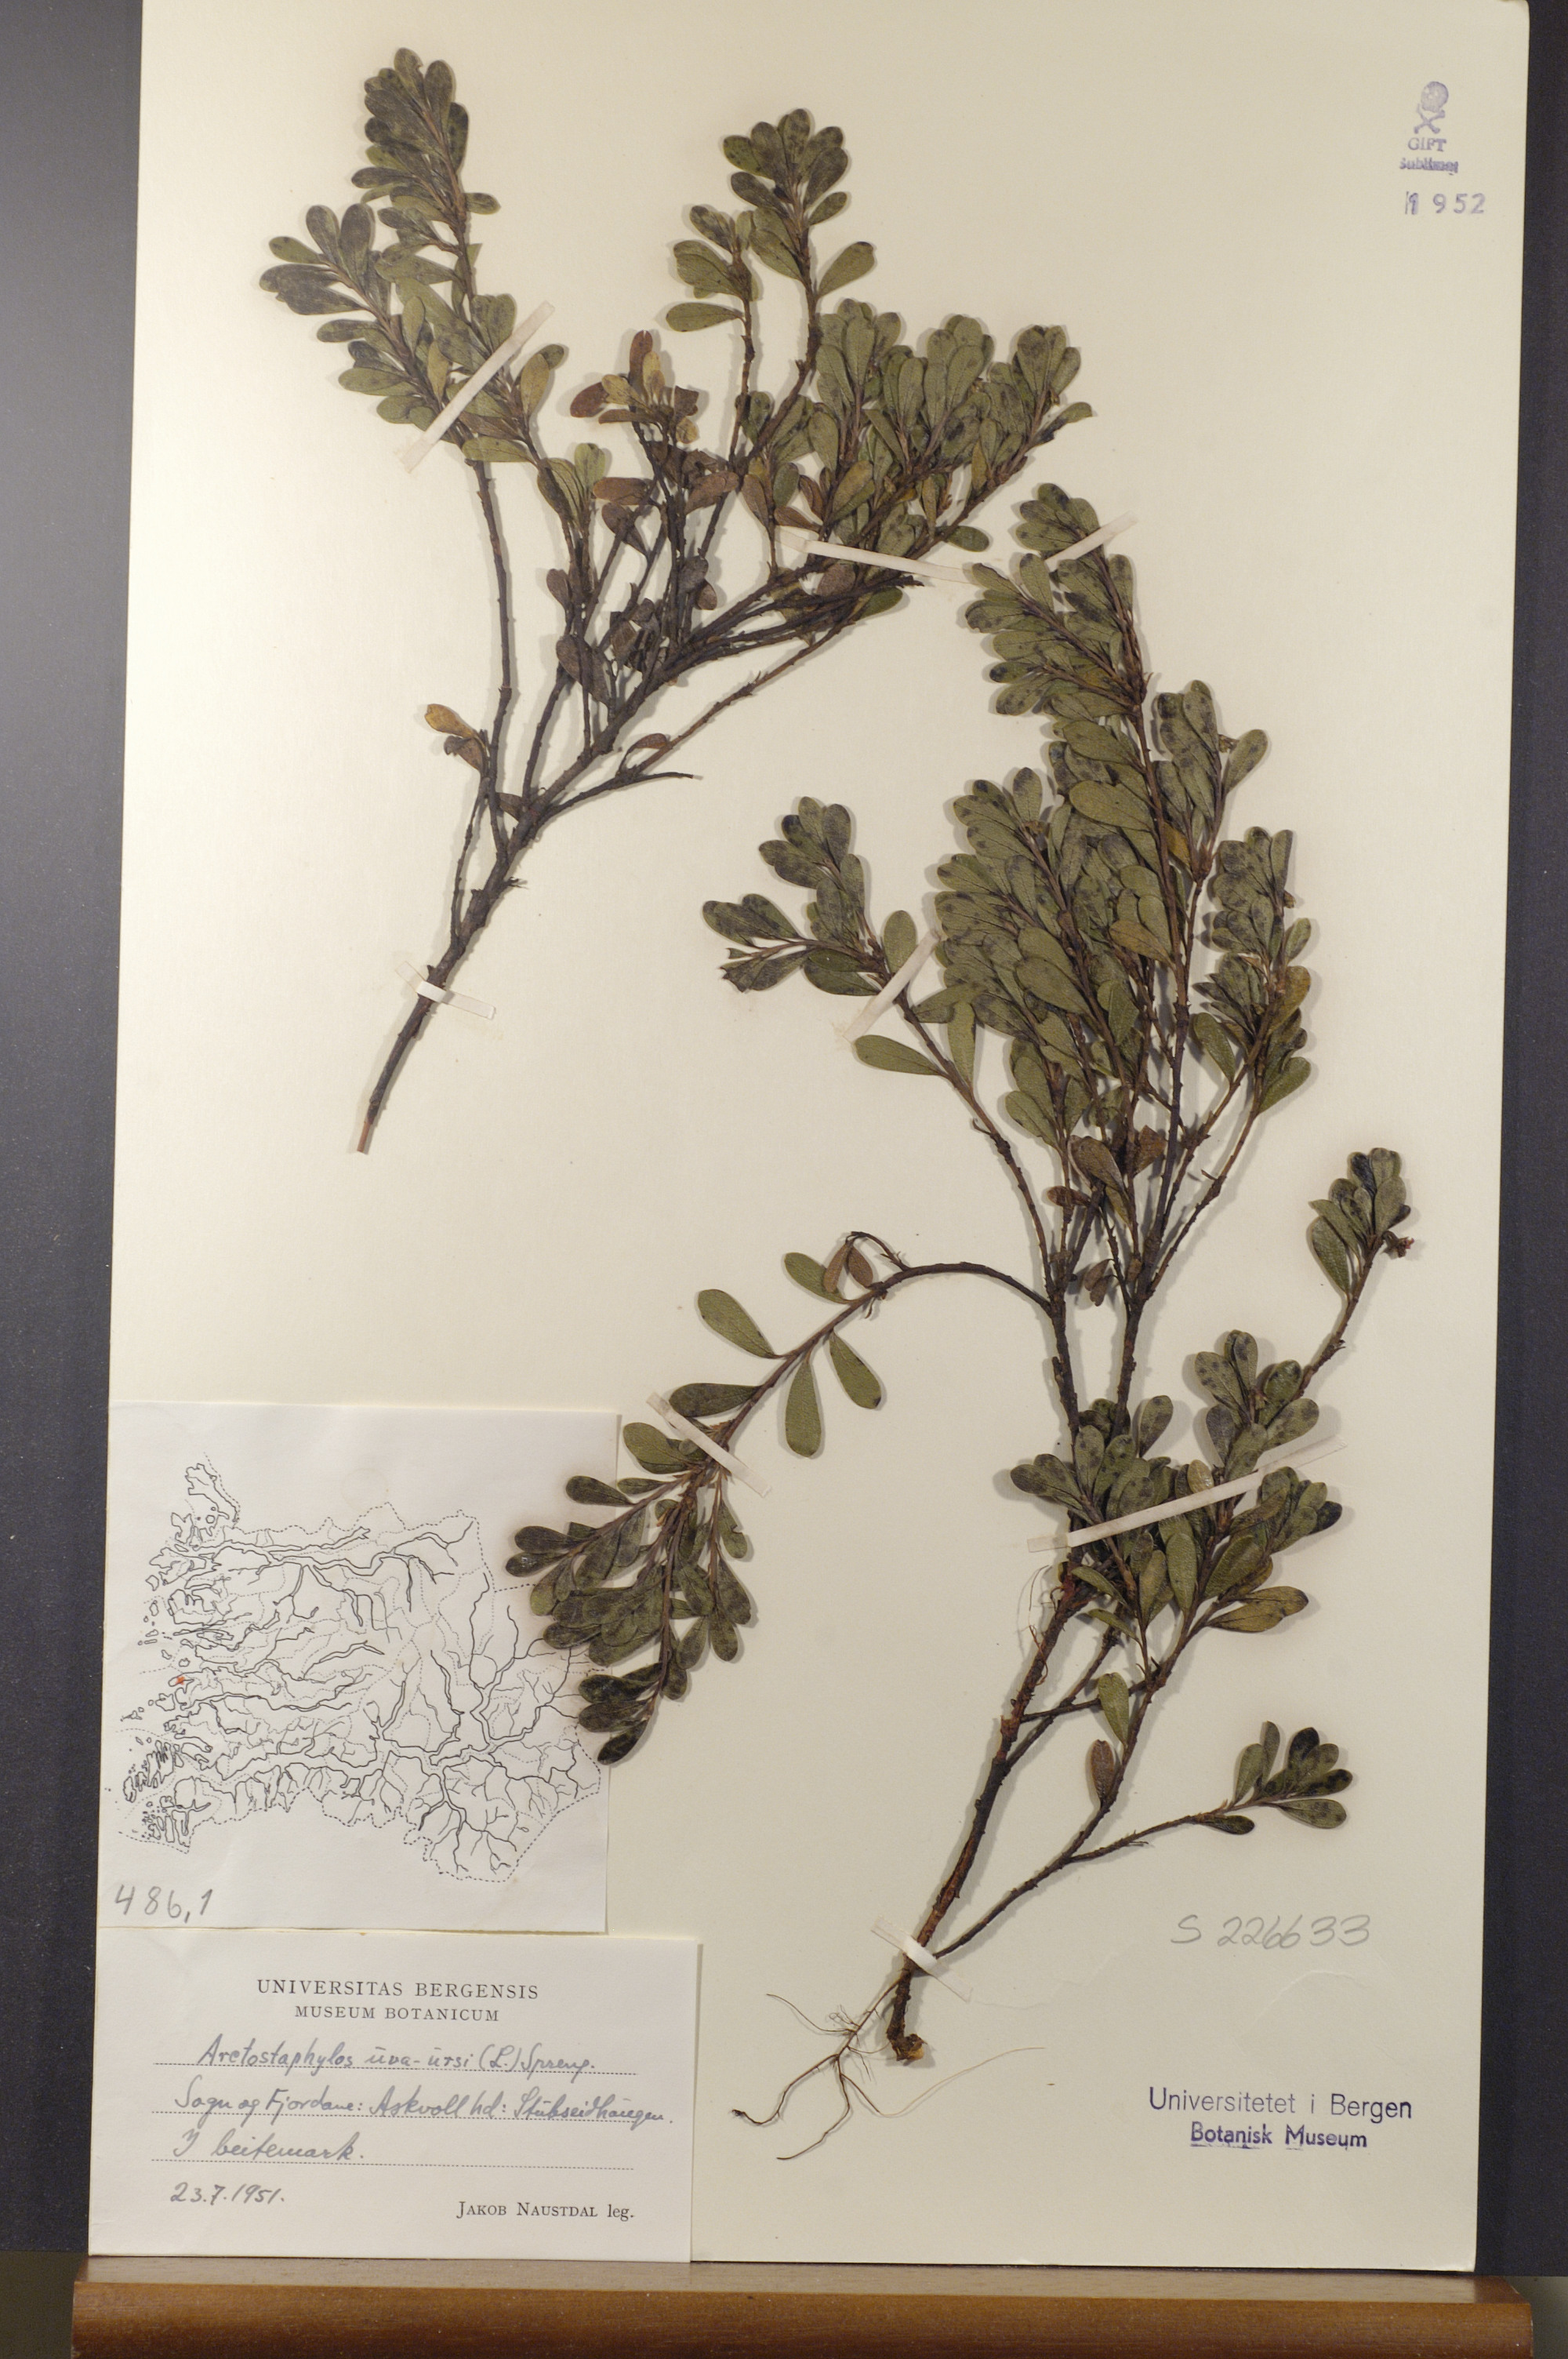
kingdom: Plantae
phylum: Tracheophyta
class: Magnoliopsida
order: Ericales
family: Ericaceae
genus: Arctostaphylos
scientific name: Arctostaphylos uva-ursi
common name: Bearberry
